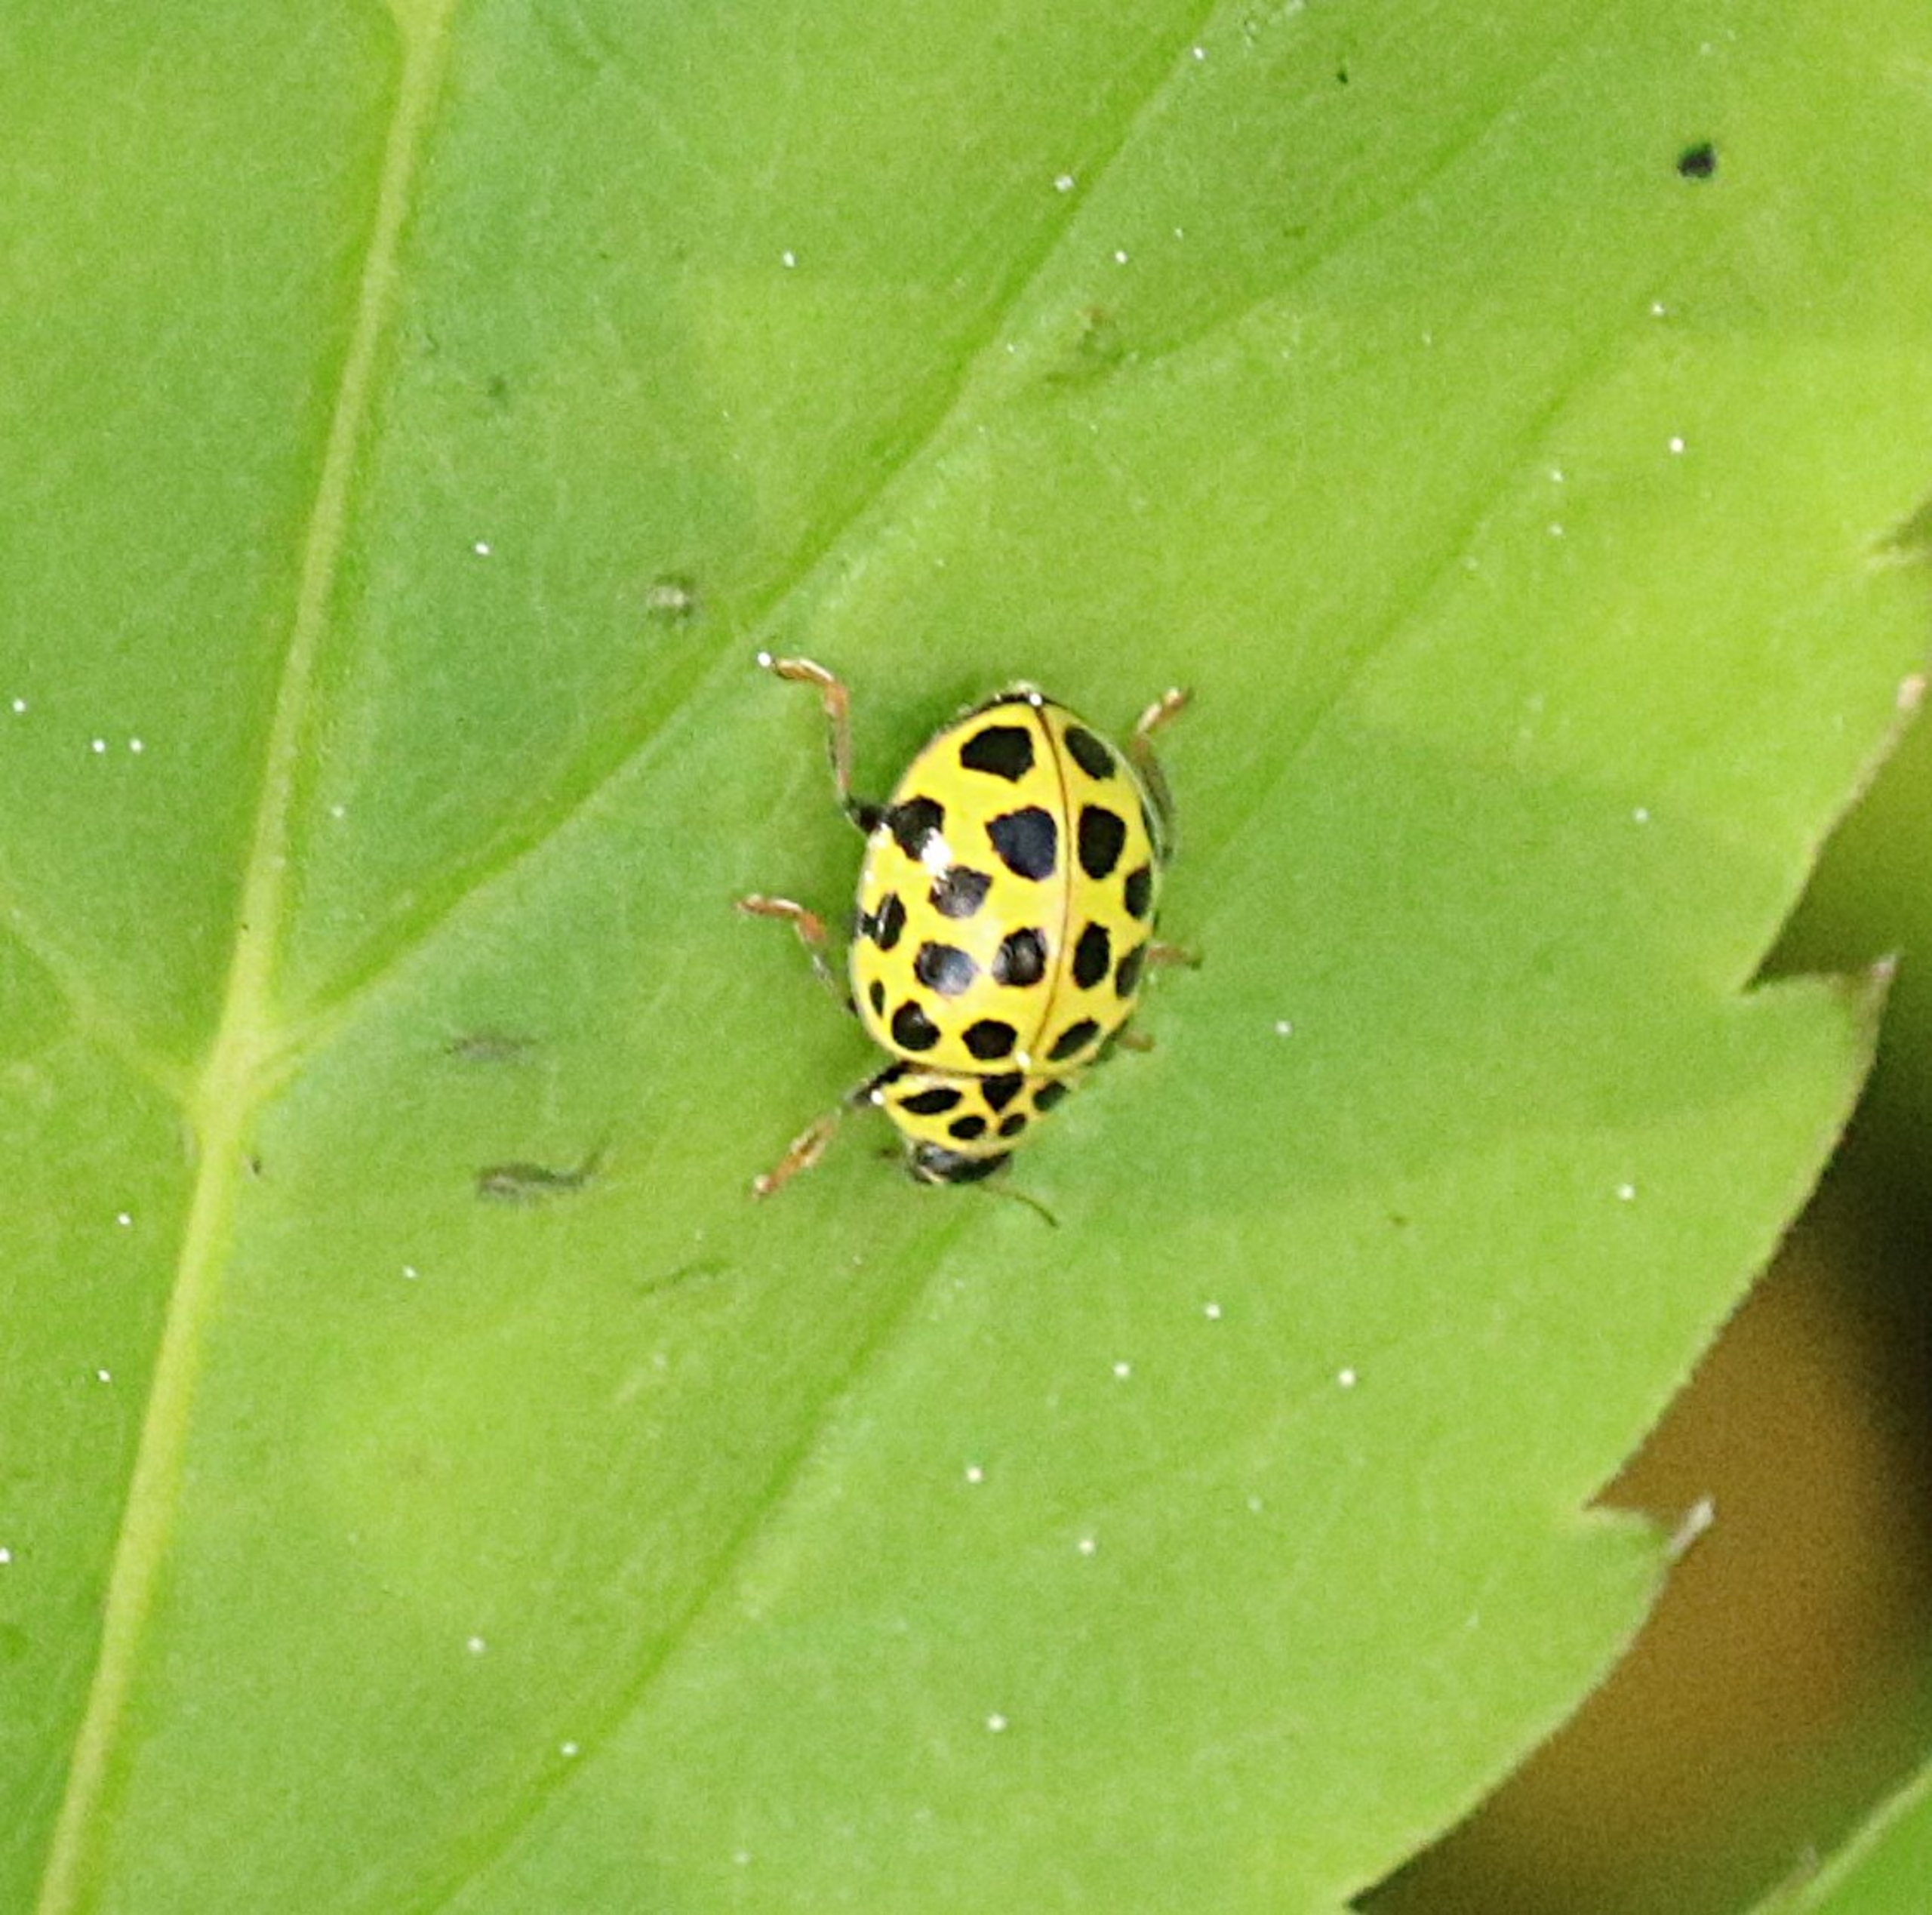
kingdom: Animalia
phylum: Arthropoda
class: Insecta
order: Coleoptera
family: Coccinellidae
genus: Psyllobora
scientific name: Psyllobora vigintiduopunctata
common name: Toogtyveplettet mariehøne
